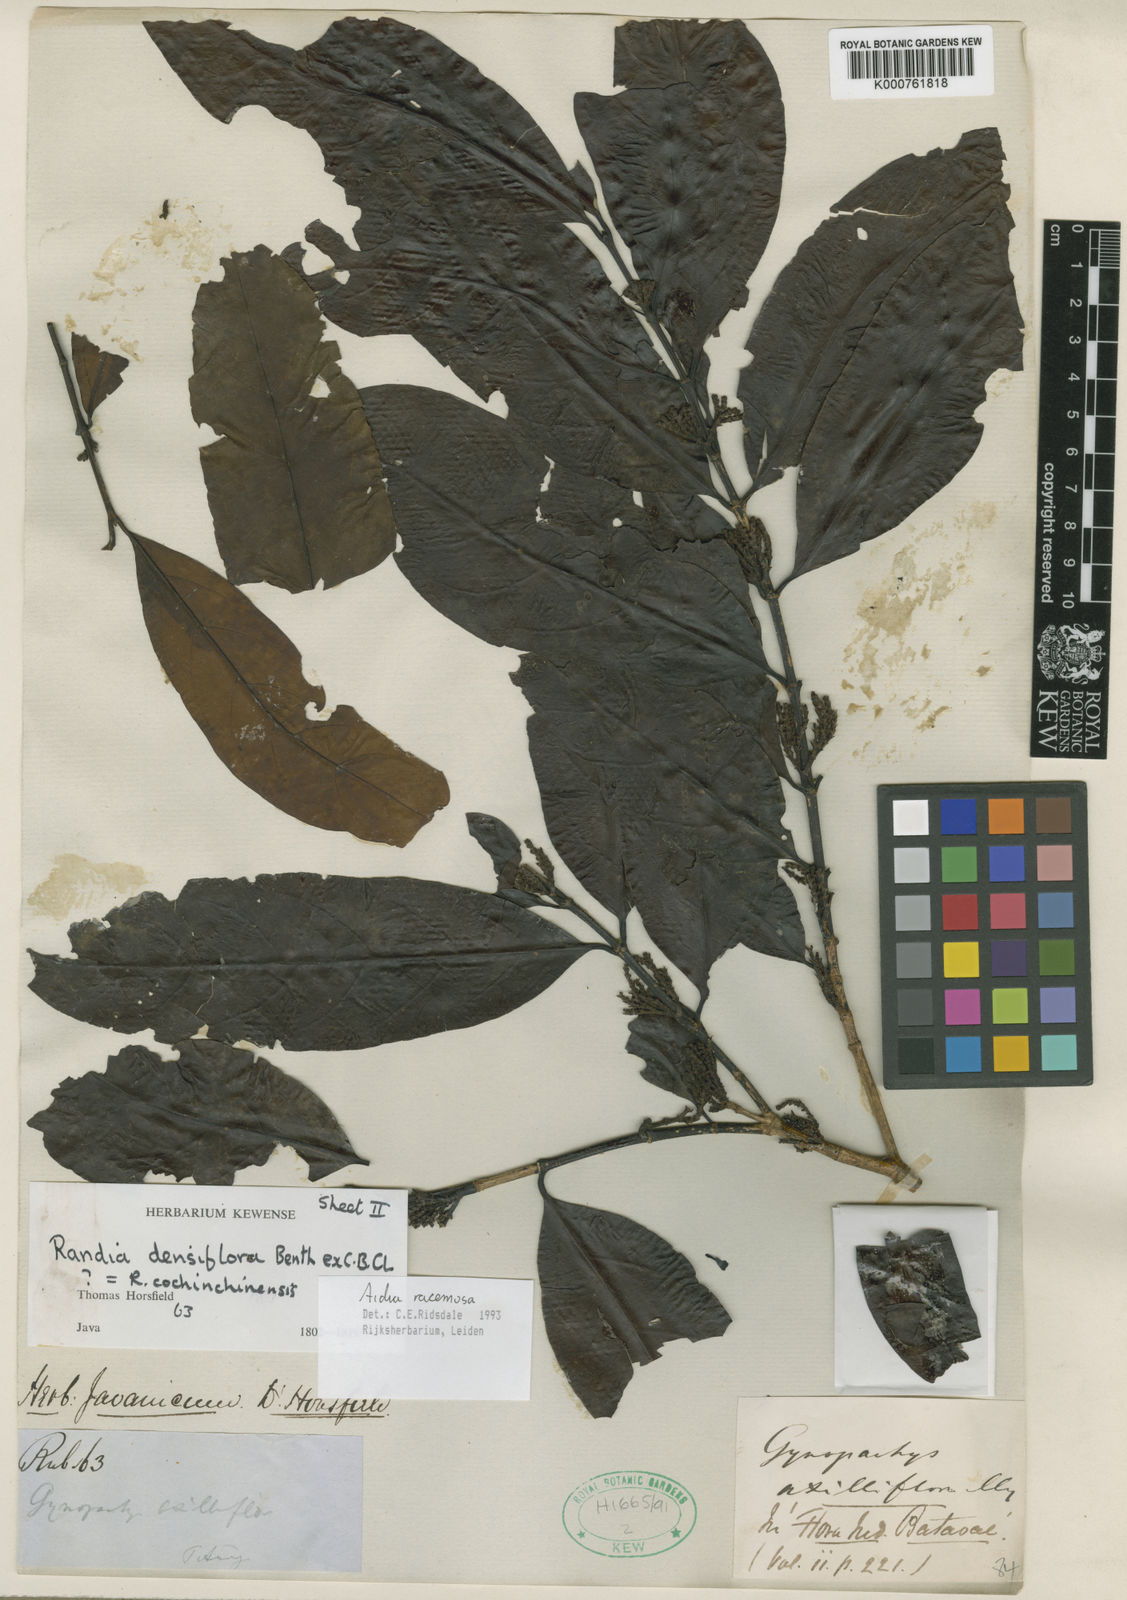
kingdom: Plantae
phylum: Tracheophyta
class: Magnoliopsida
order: Gentianales
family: Rubiaceae
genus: Aidia
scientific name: Aidia densiflora
